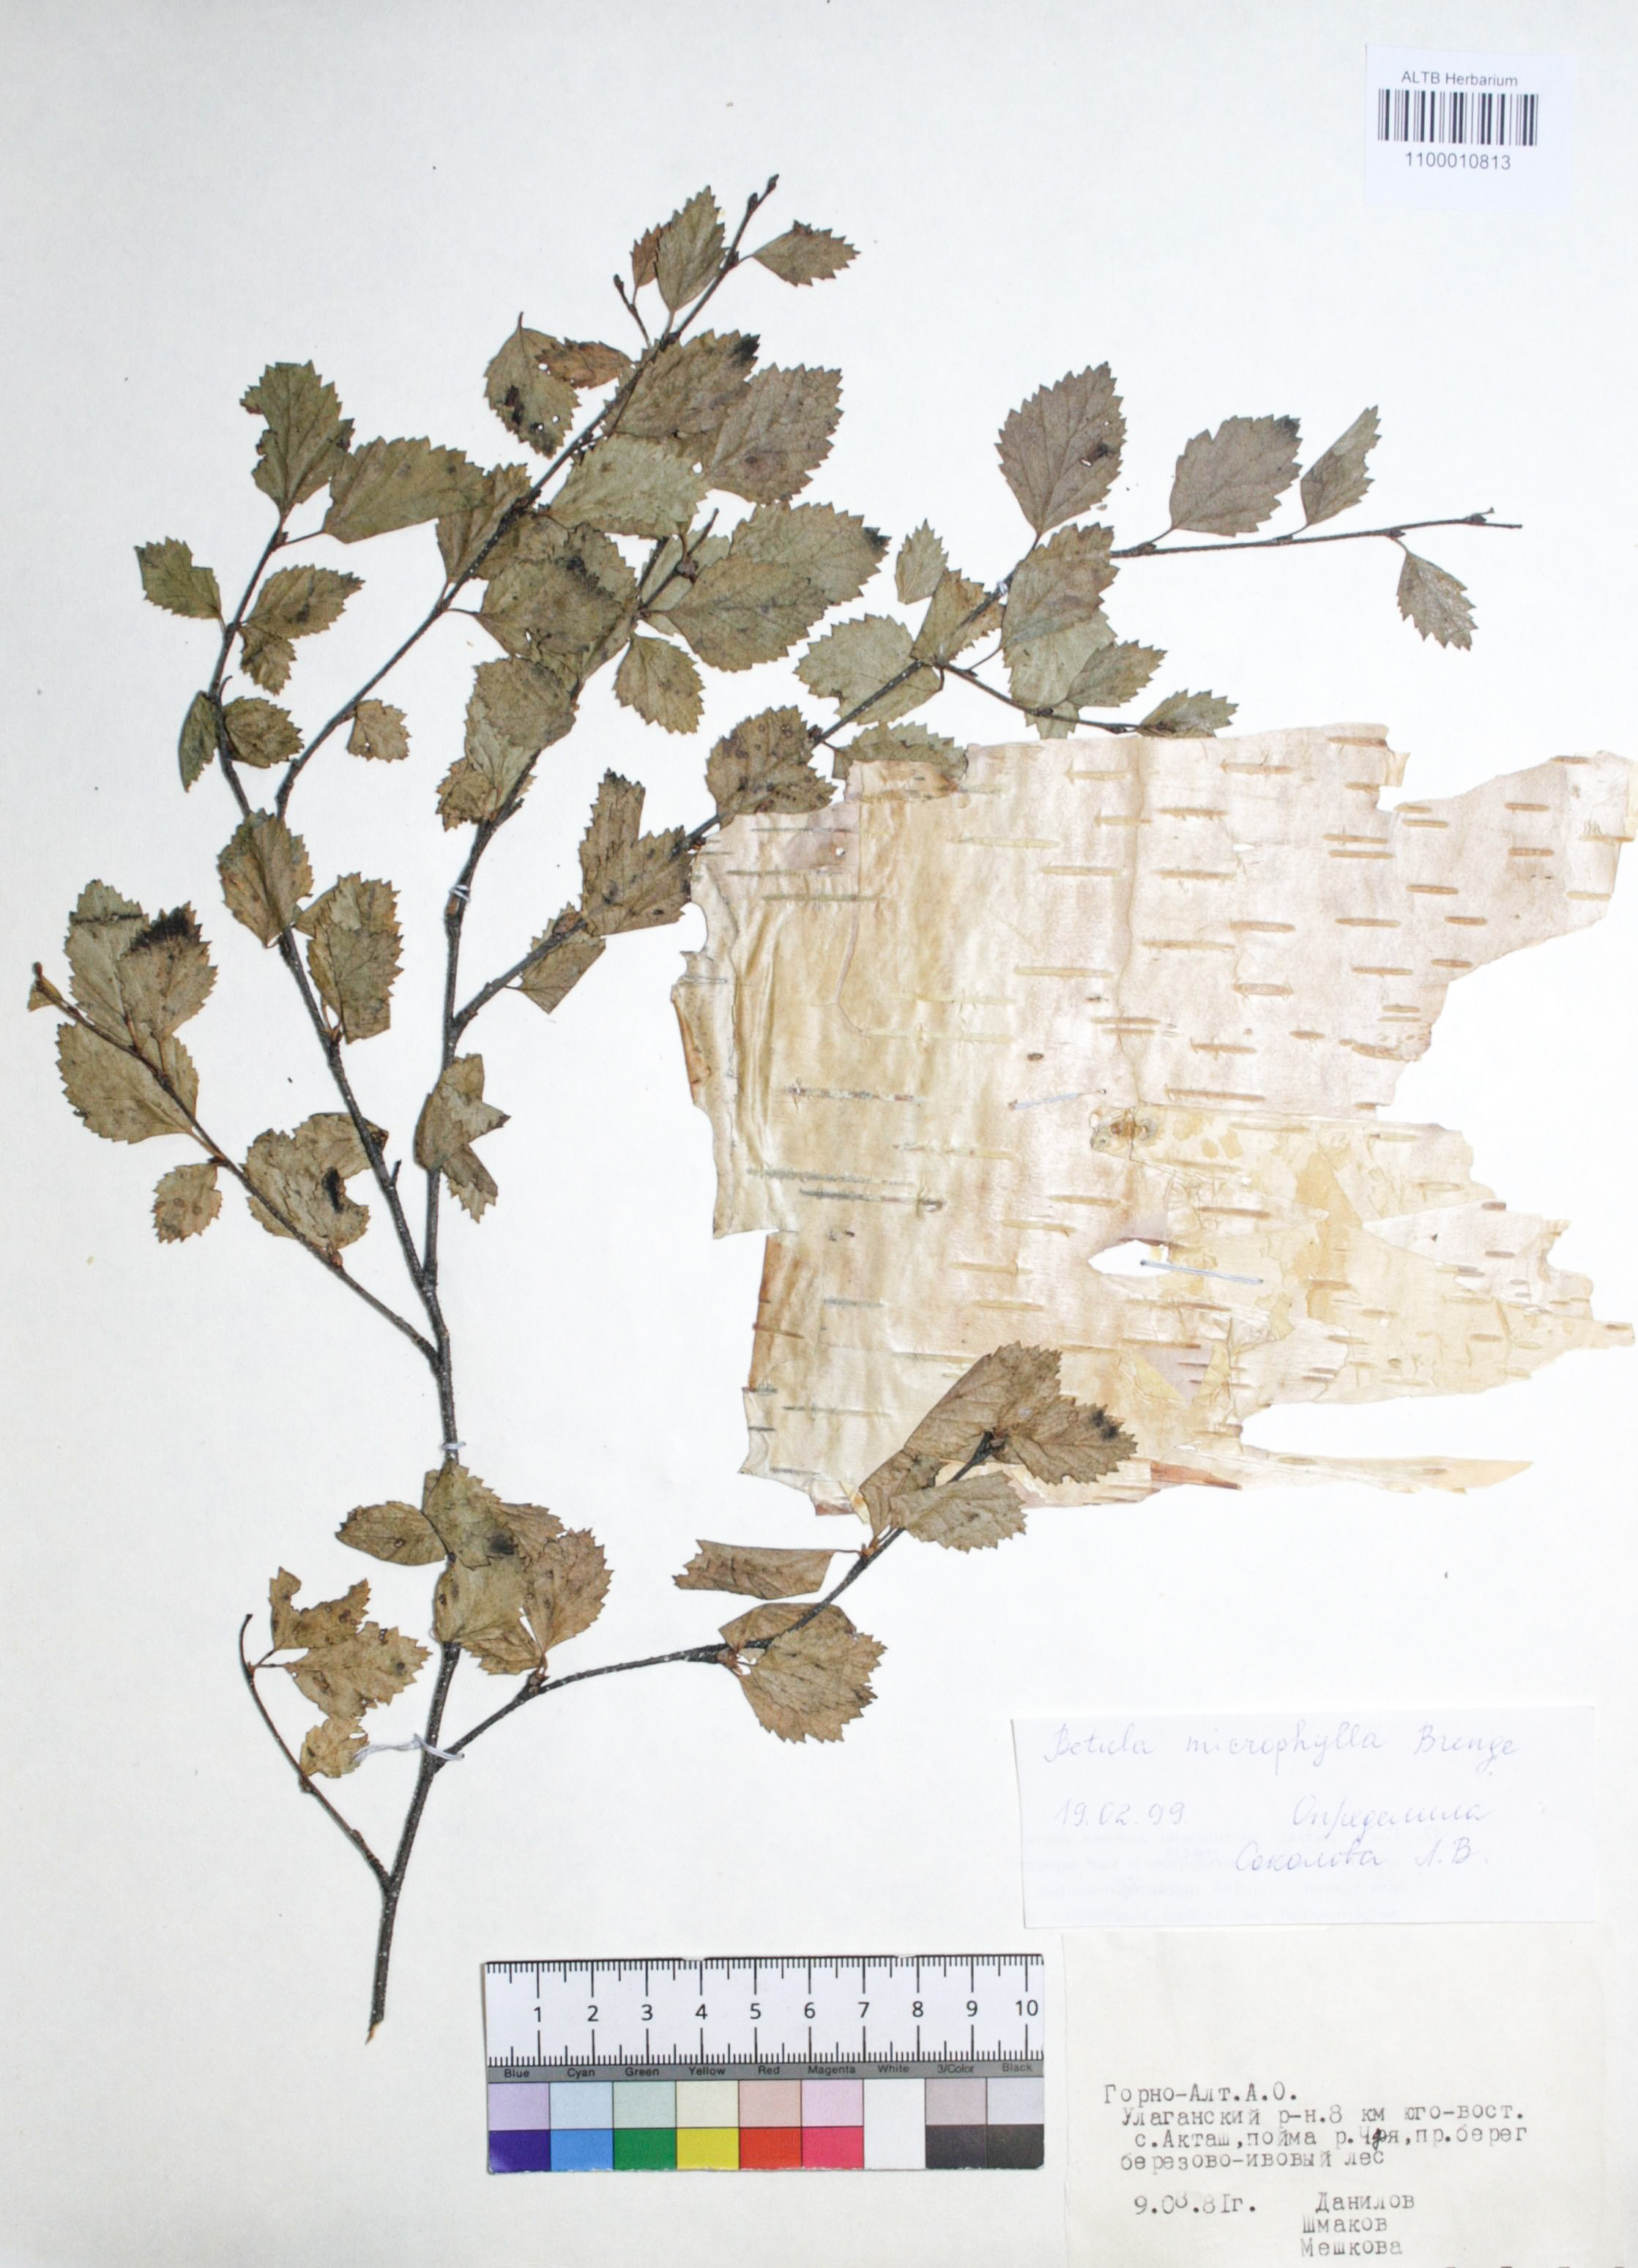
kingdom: Plantae
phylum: Tracheophyta
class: Magnoliopsida
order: Fagales
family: Betulaceae
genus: Betula
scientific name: Betula microphylla
